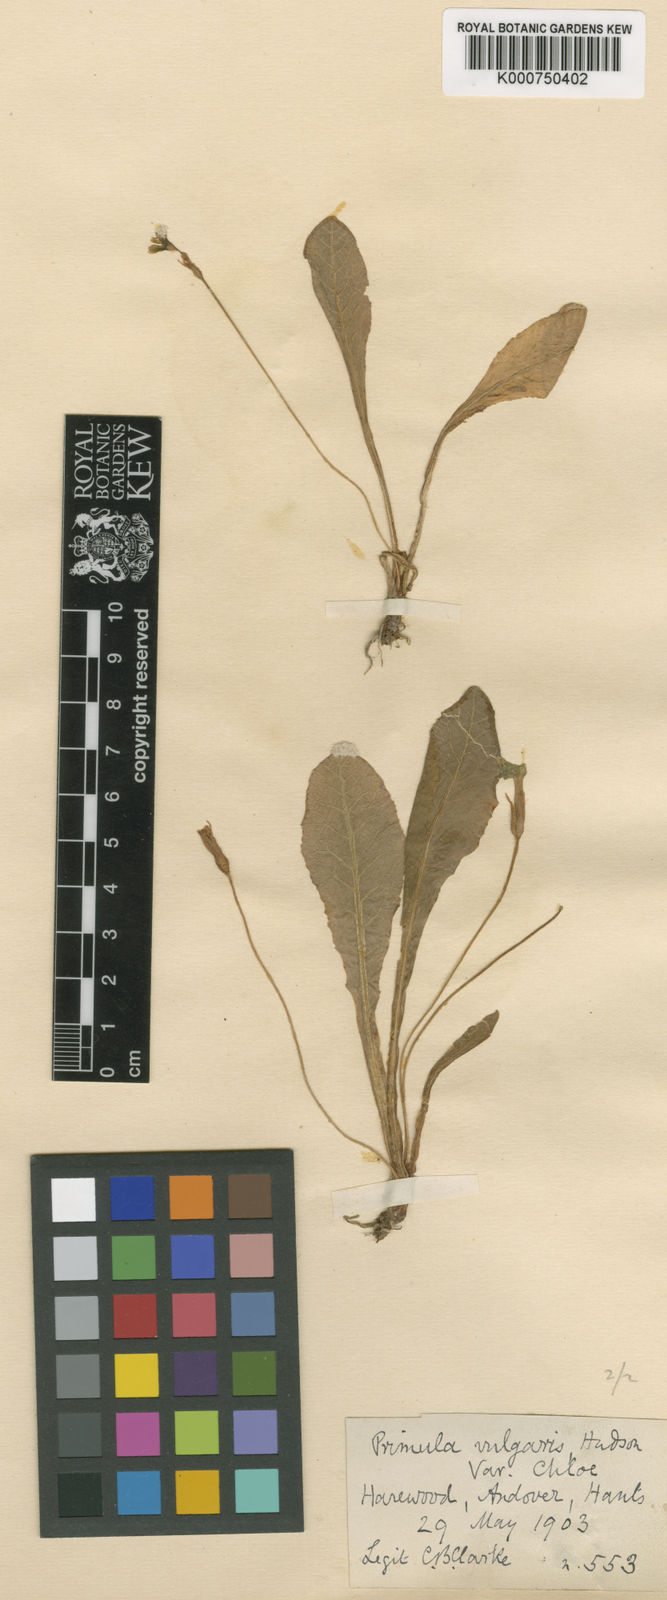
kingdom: Plantae
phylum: Tracheophyta
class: Magnoliopsida
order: Ericales
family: Primulaceae
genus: Primula
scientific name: Primula vulgaris
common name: Primrose
